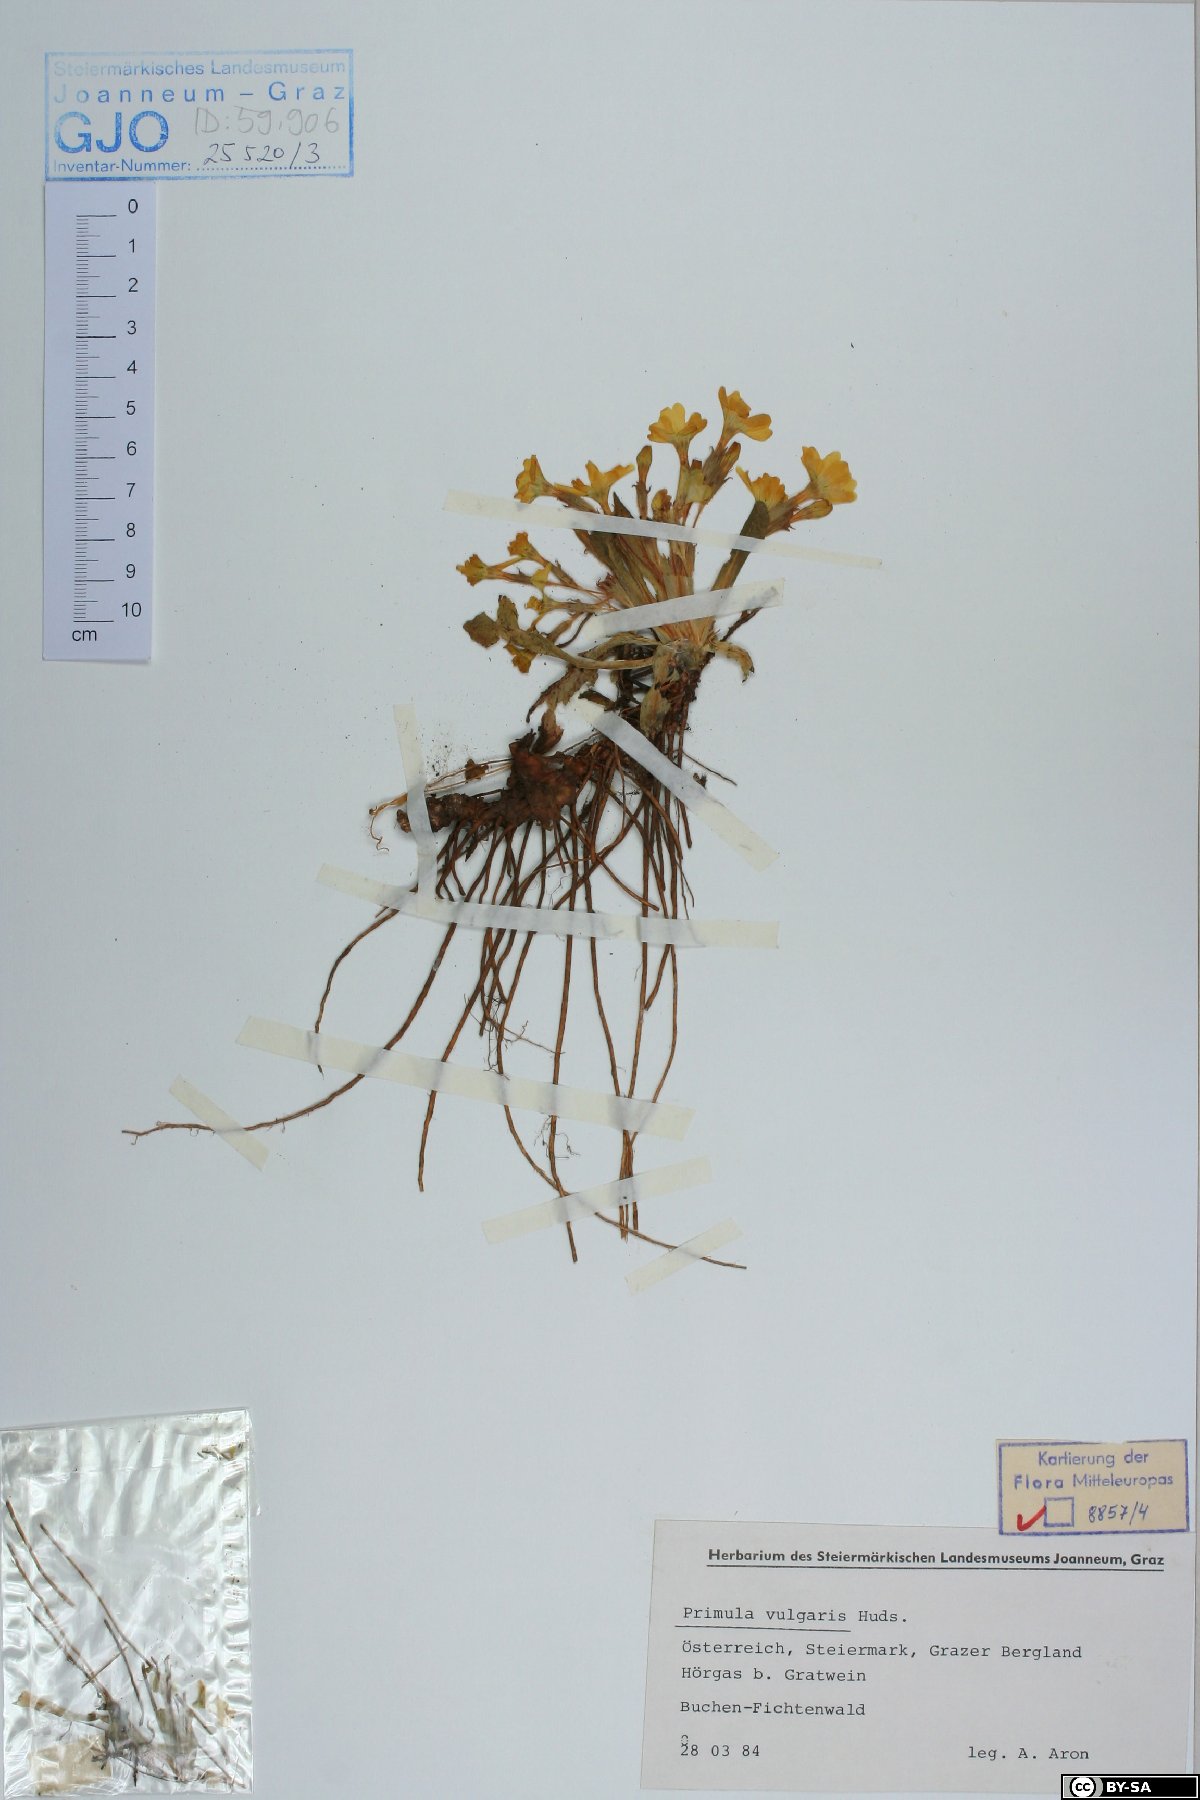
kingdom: Plantae
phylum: Tracheophyta
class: Magnoliopsida
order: Ericales
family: Primulaceae
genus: Primula
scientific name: Primula vulgaris
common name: Primrose
